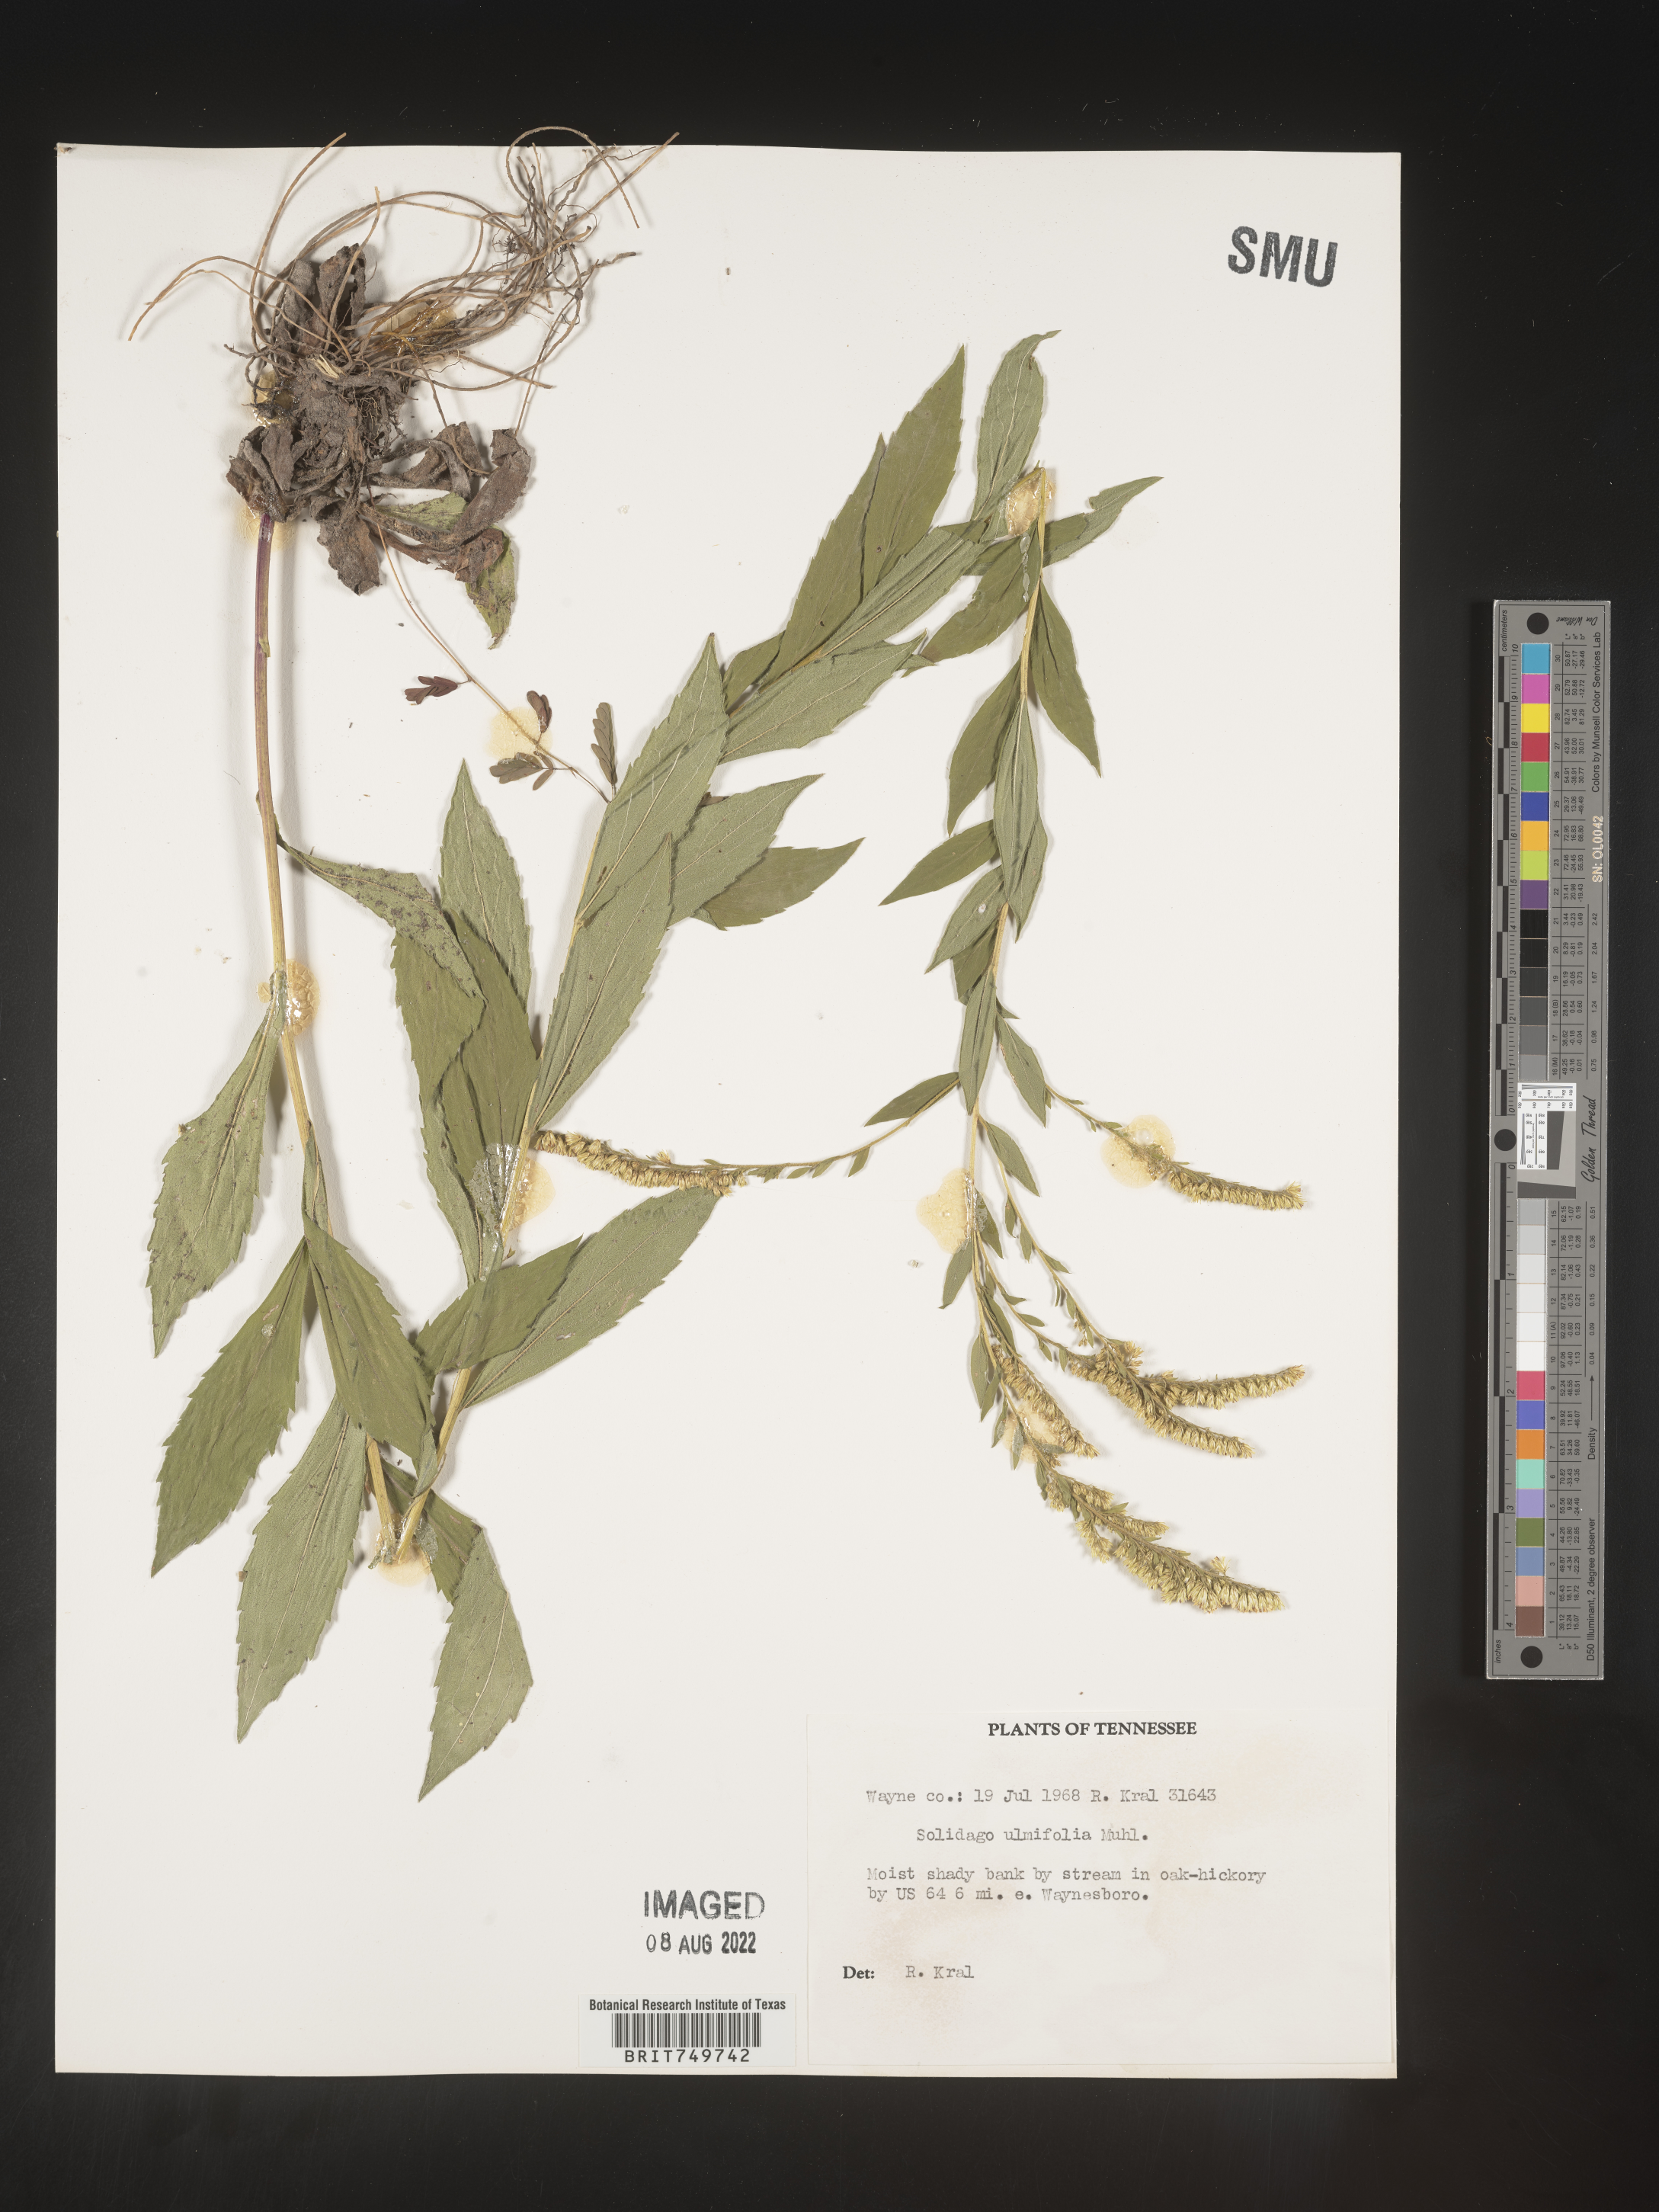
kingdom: Plantae
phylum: Tracheophyta
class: Magnoliopsida
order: Asterales
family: Asteraceae
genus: Solidago
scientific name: Solidago ulmifolia
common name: Elm-leaf goldenrod
